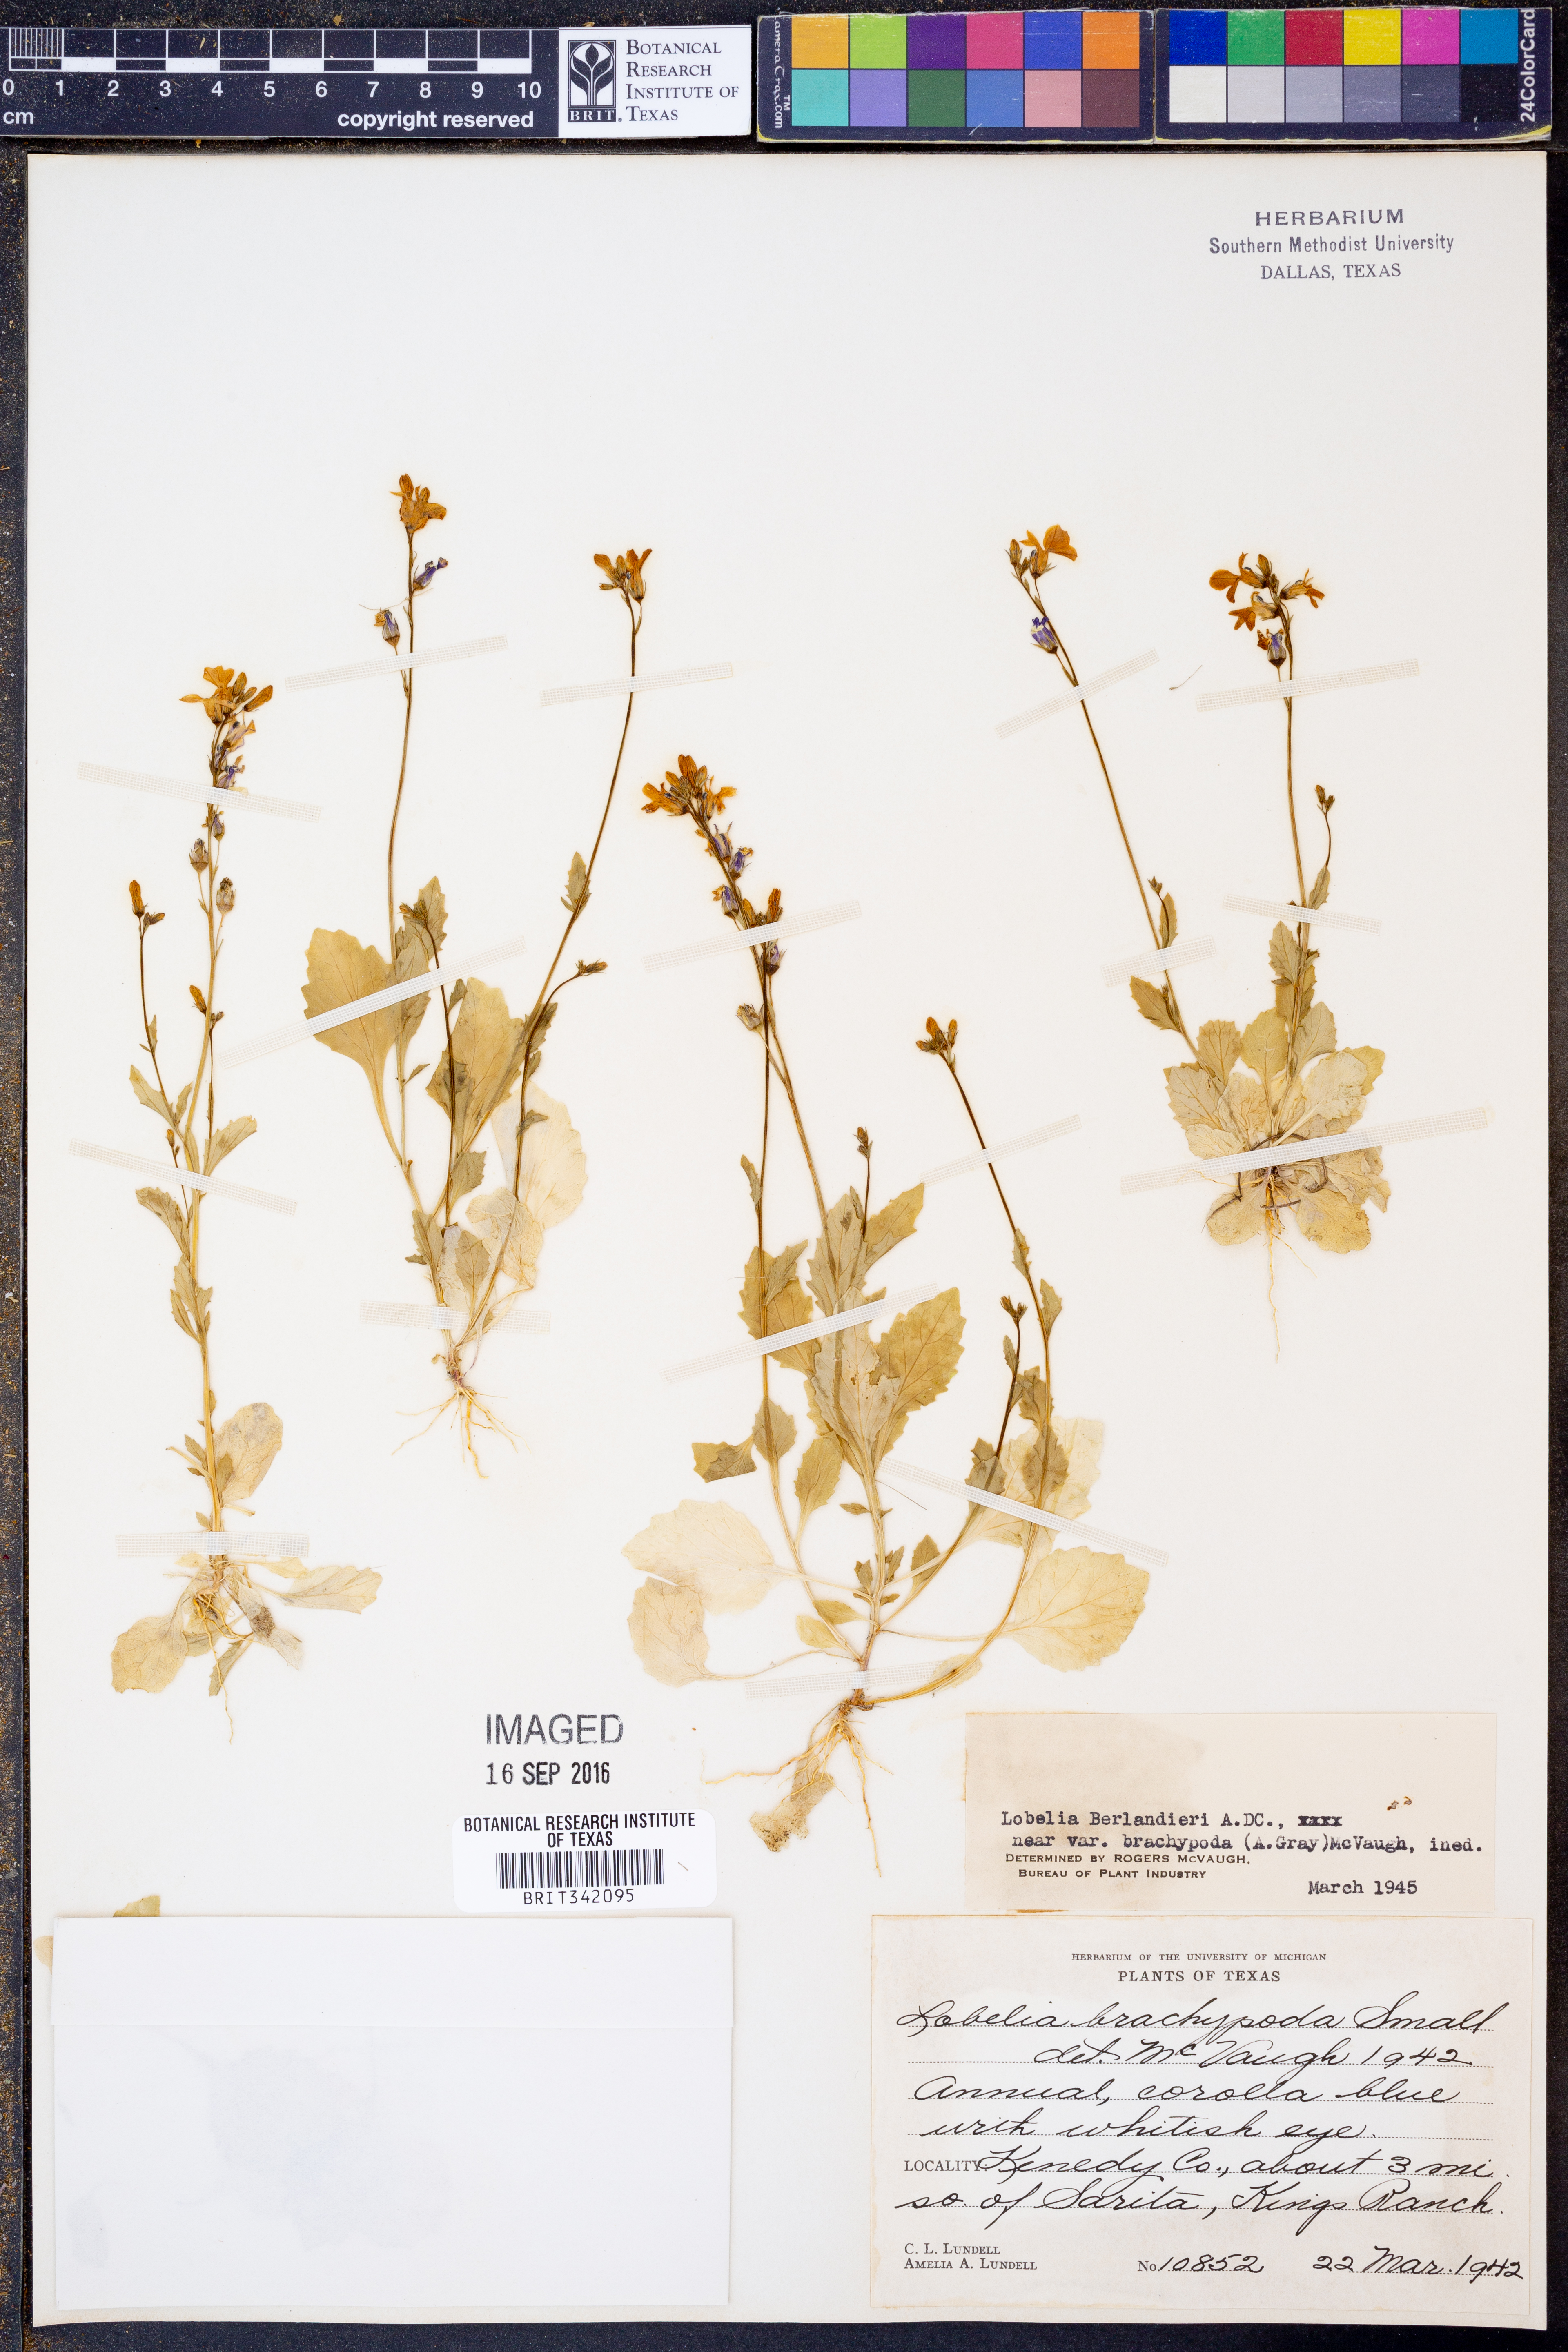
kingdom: Plantae
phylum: Tracheophyta
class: Magnoliopsida
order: Asterales
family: Campanulaceae
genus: Lobelia
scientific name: Lobelia berlandieri
